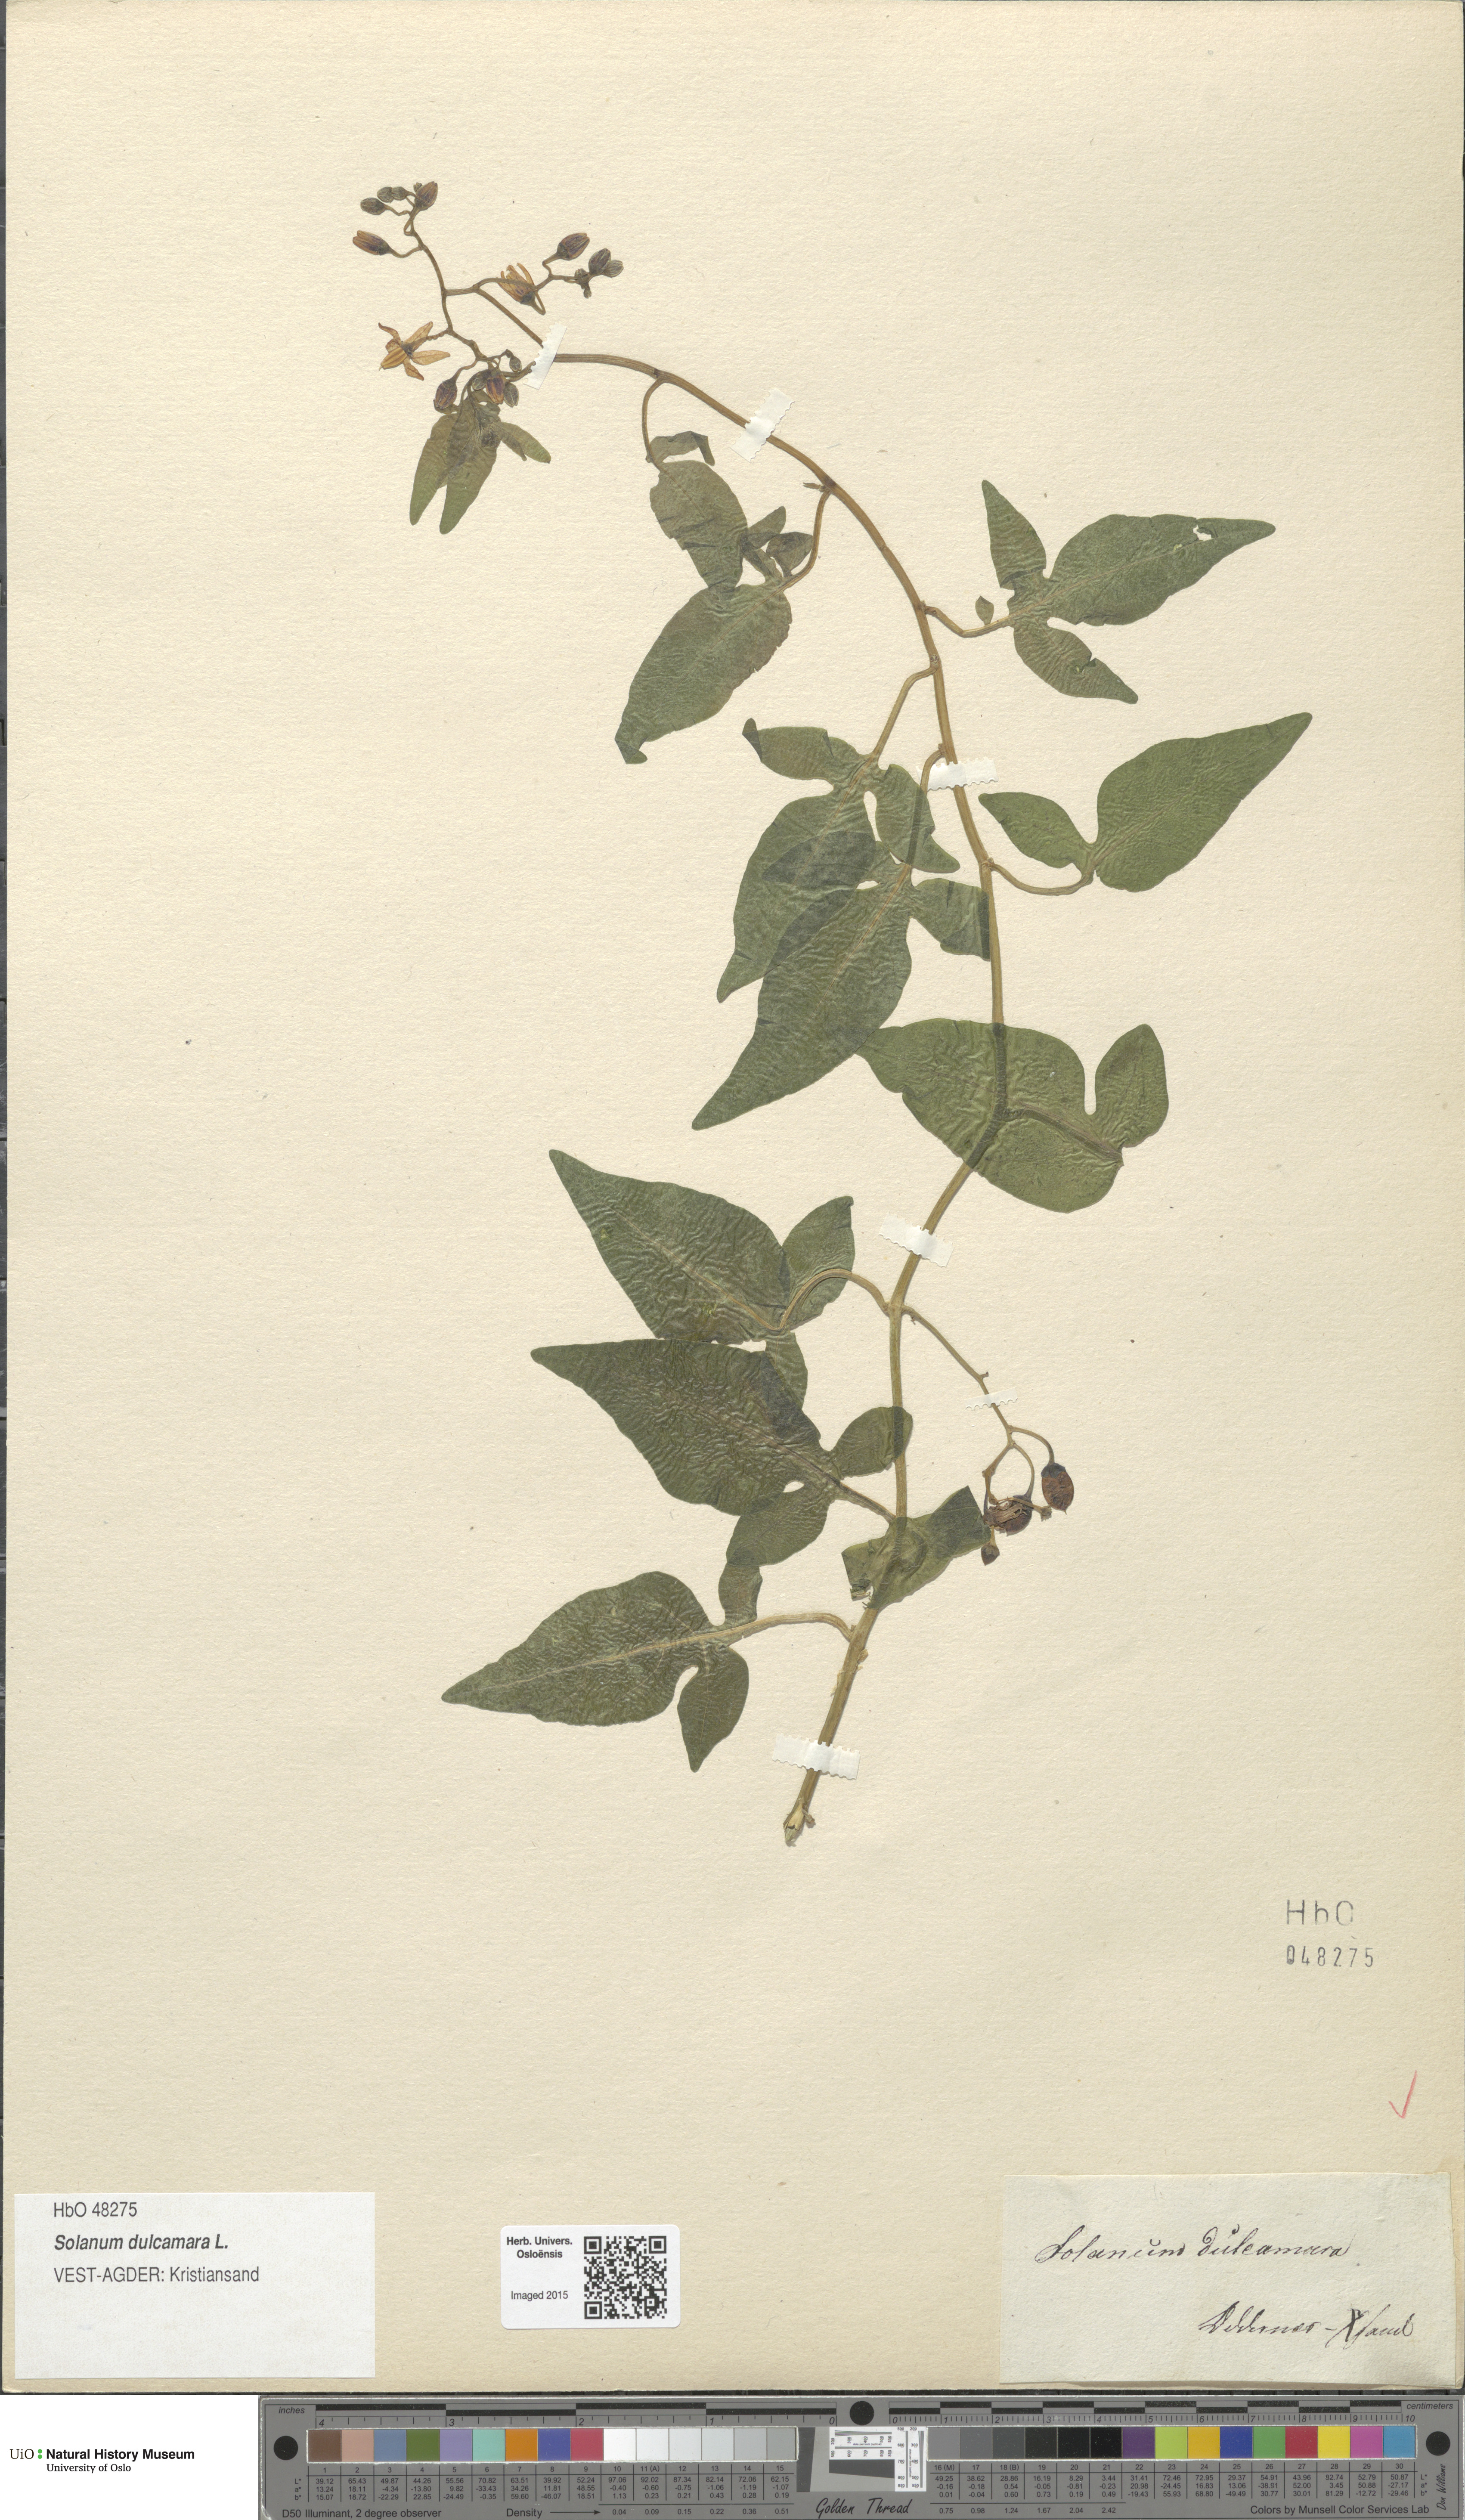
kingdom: Plantae
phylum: Tracheophyta
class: Magnoliopsida
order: Solanales
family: Solanaceae
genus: Solanum
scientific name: Solanum dulcamara
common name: Climbing nightshade
